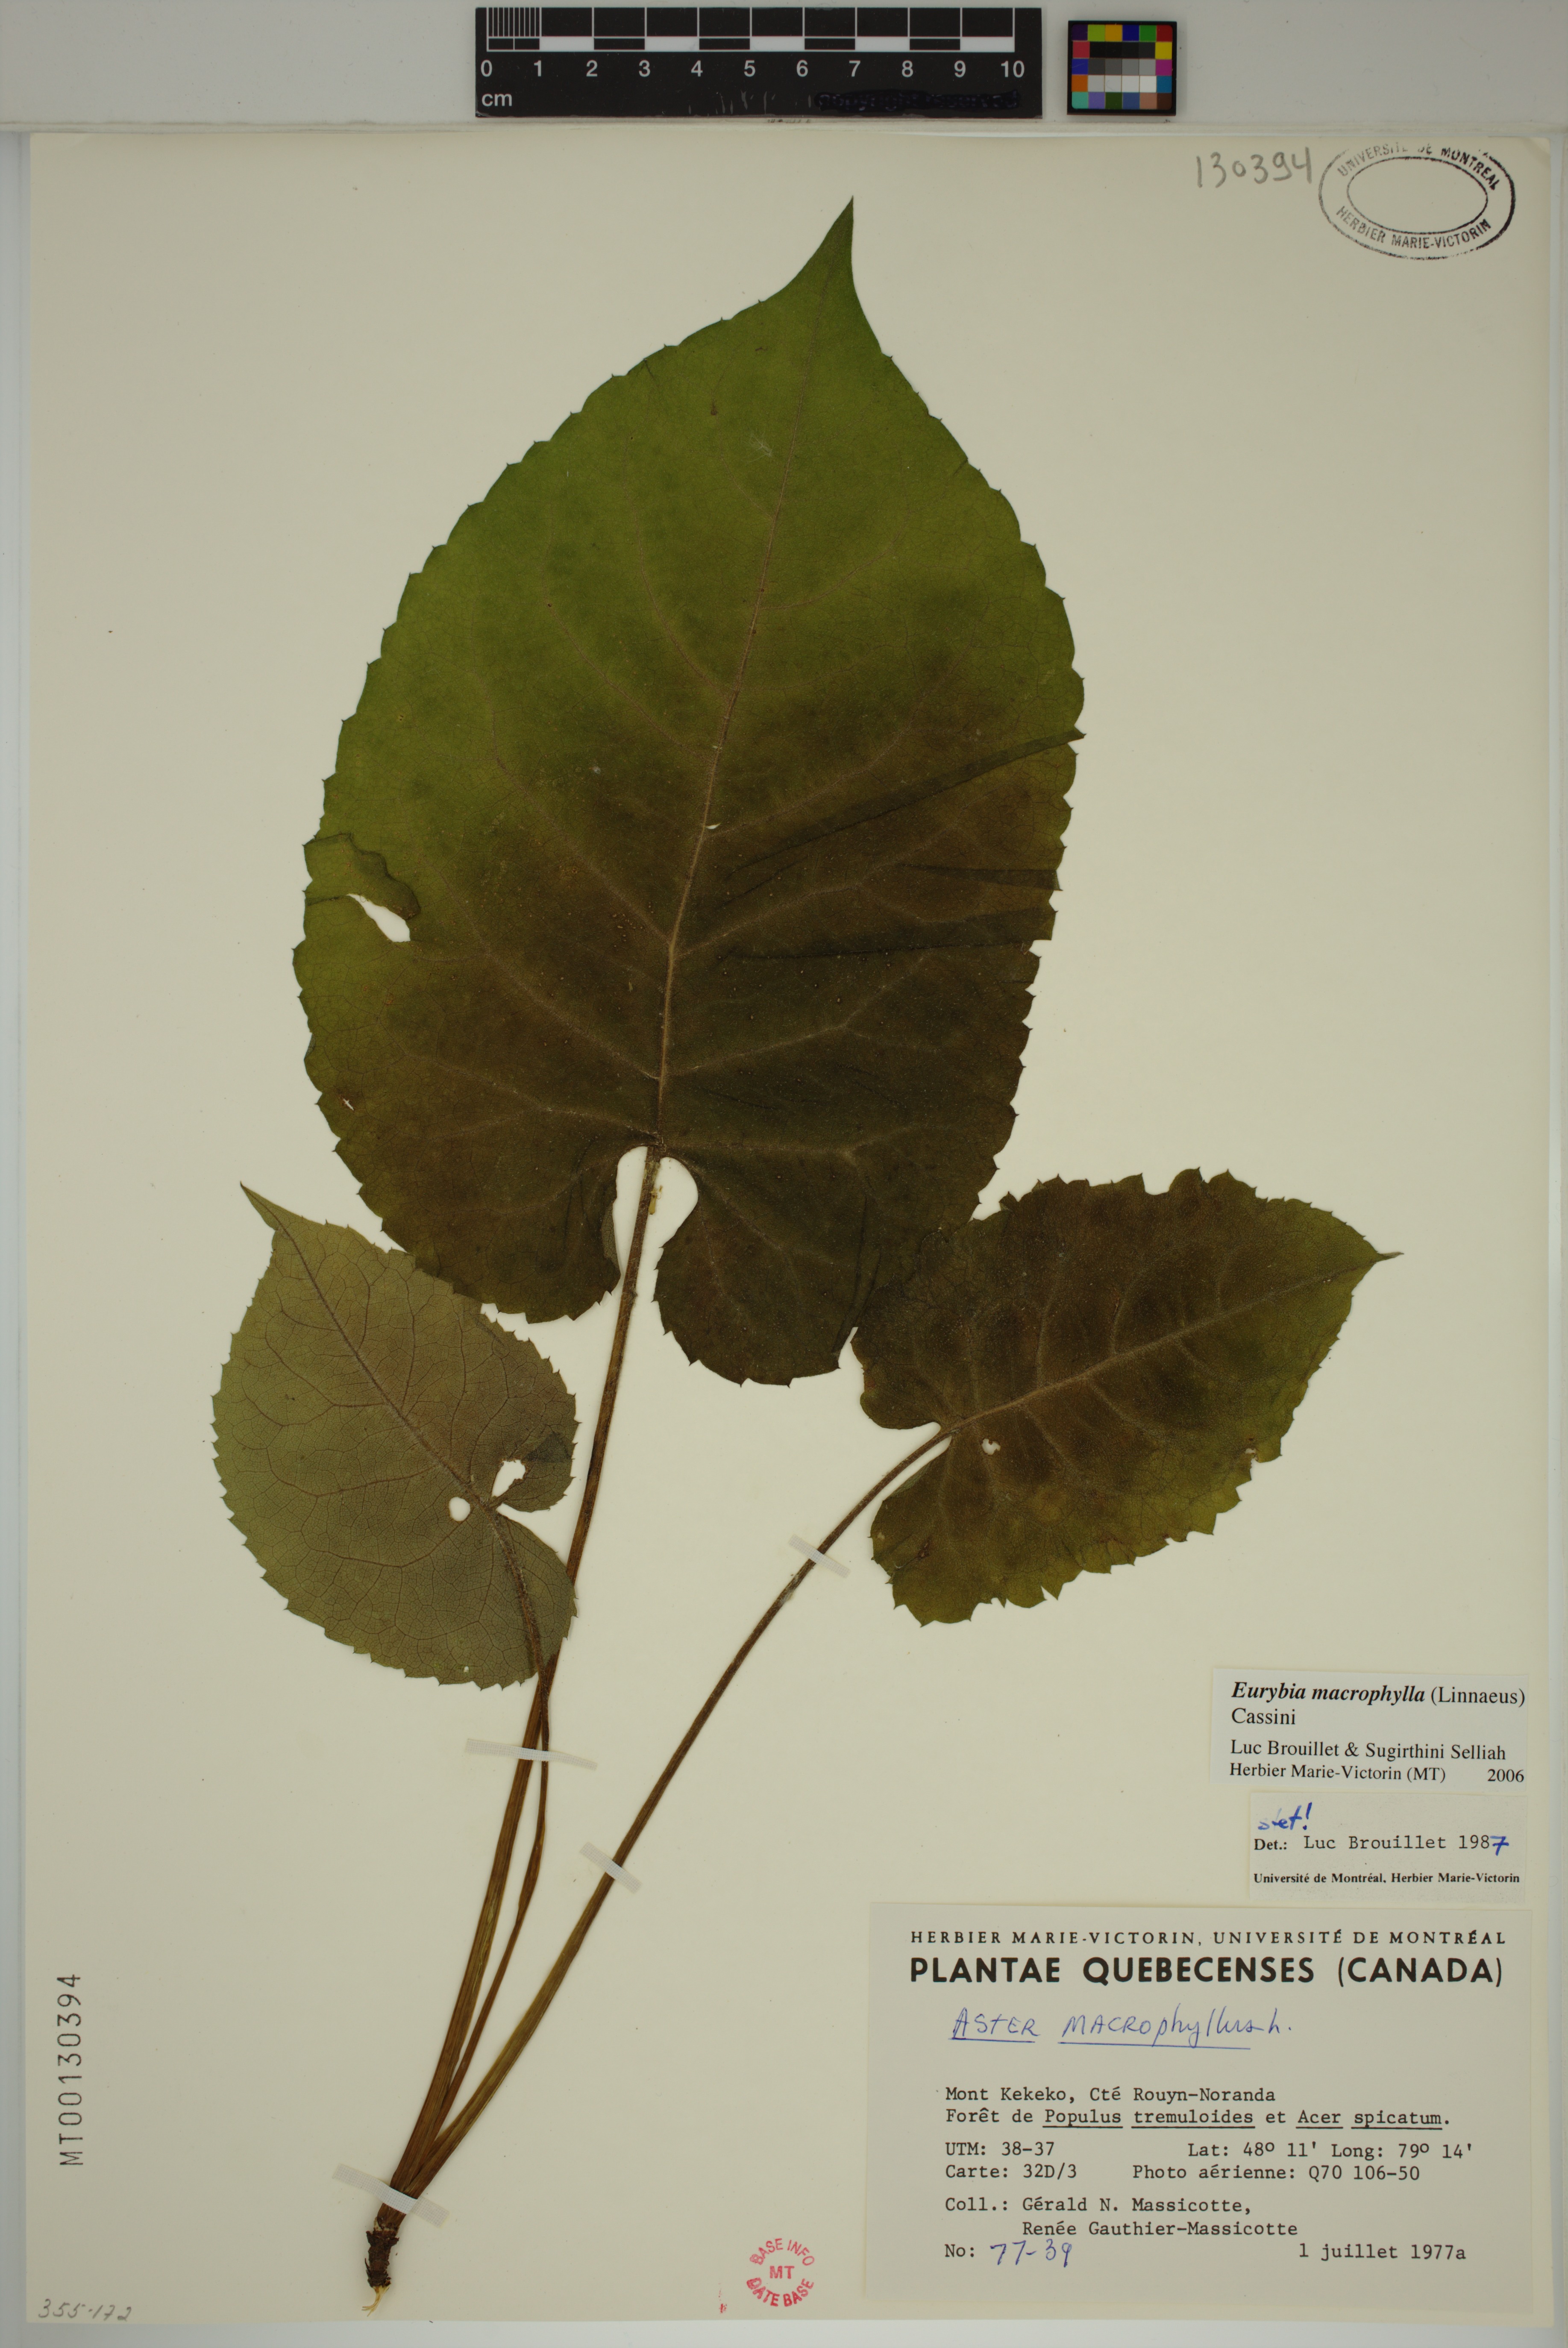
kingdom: Plantae
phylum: Tracheophyta
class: Magnoliopsida
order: Asterales
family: Asteraceae
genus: Eurybia
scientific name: Eurybia macrophylla
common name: Big-leaved aster
